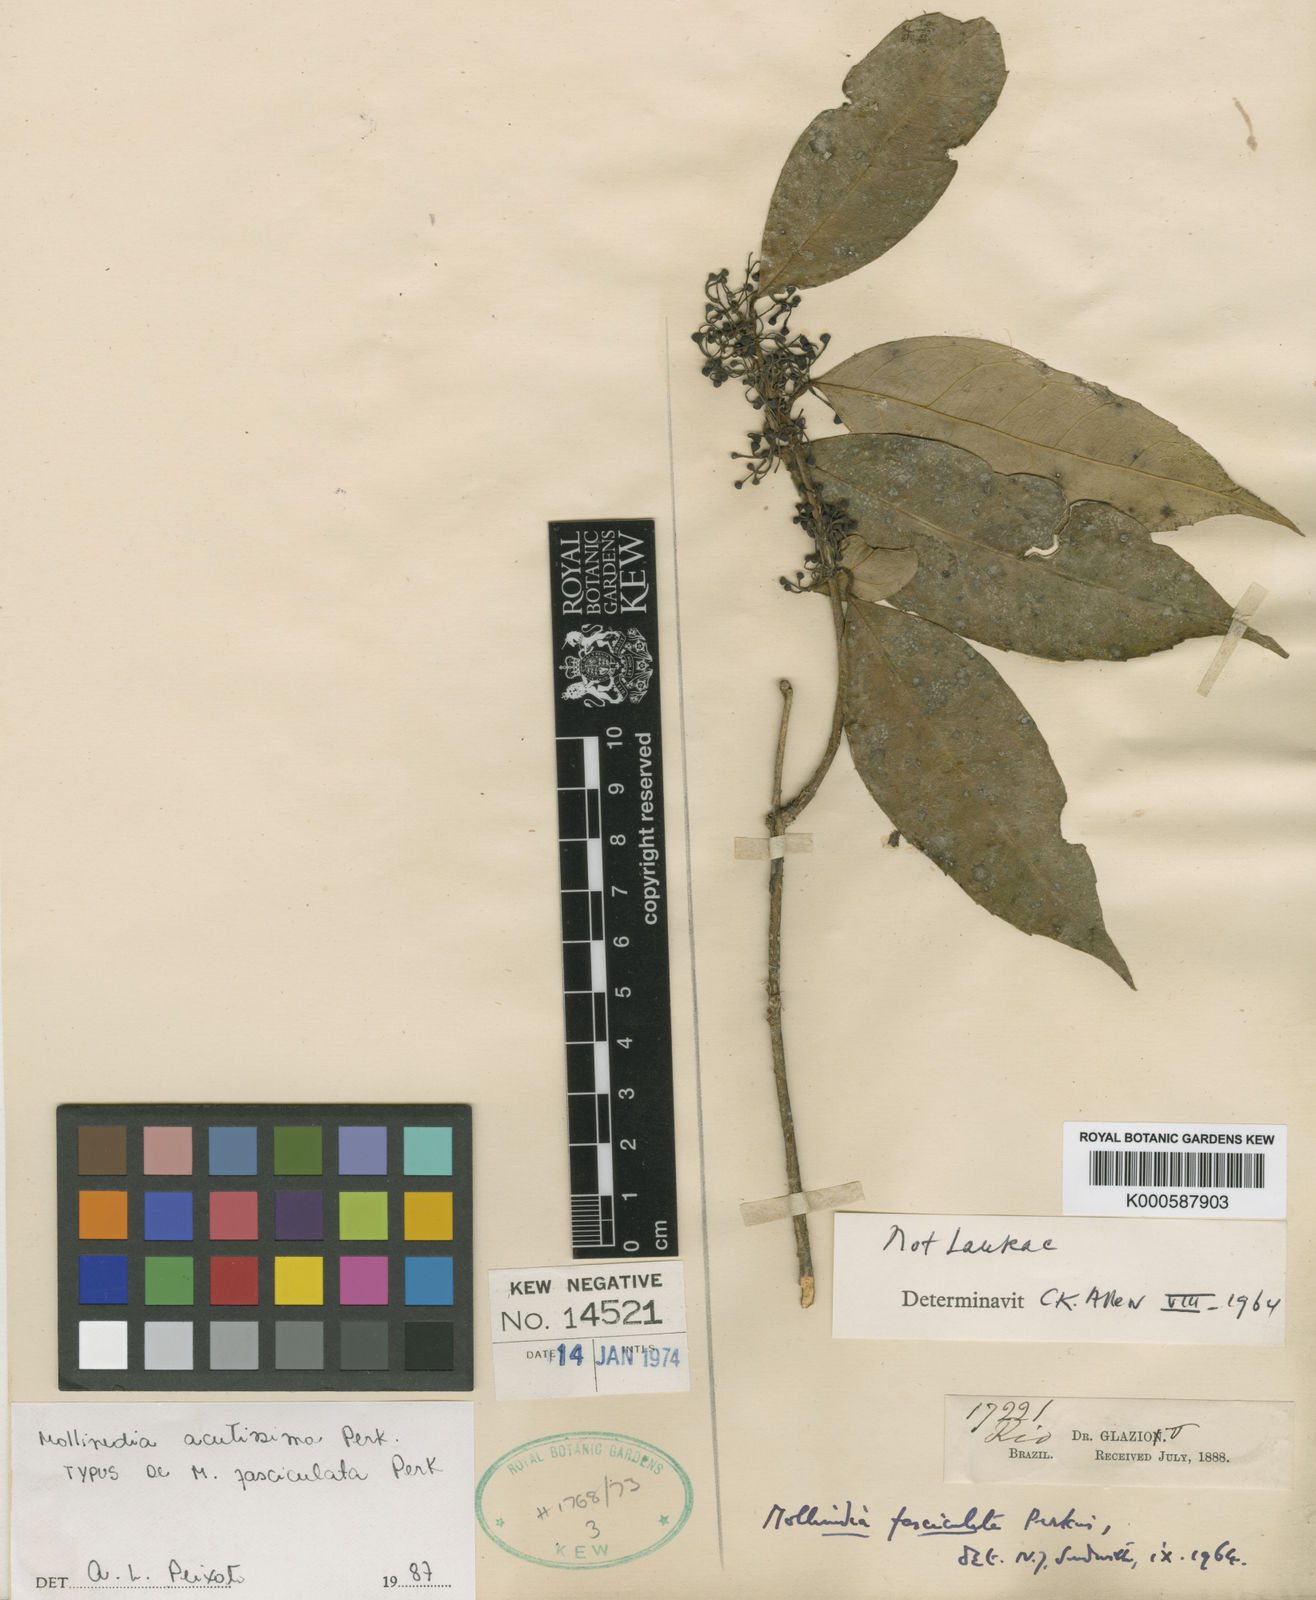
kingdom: Plantae
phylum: Tracheophyta
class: Magnoliopsida
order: Laurales
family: Monimiaceae
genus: Mollinedia
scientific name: Mollinedia elliptica
